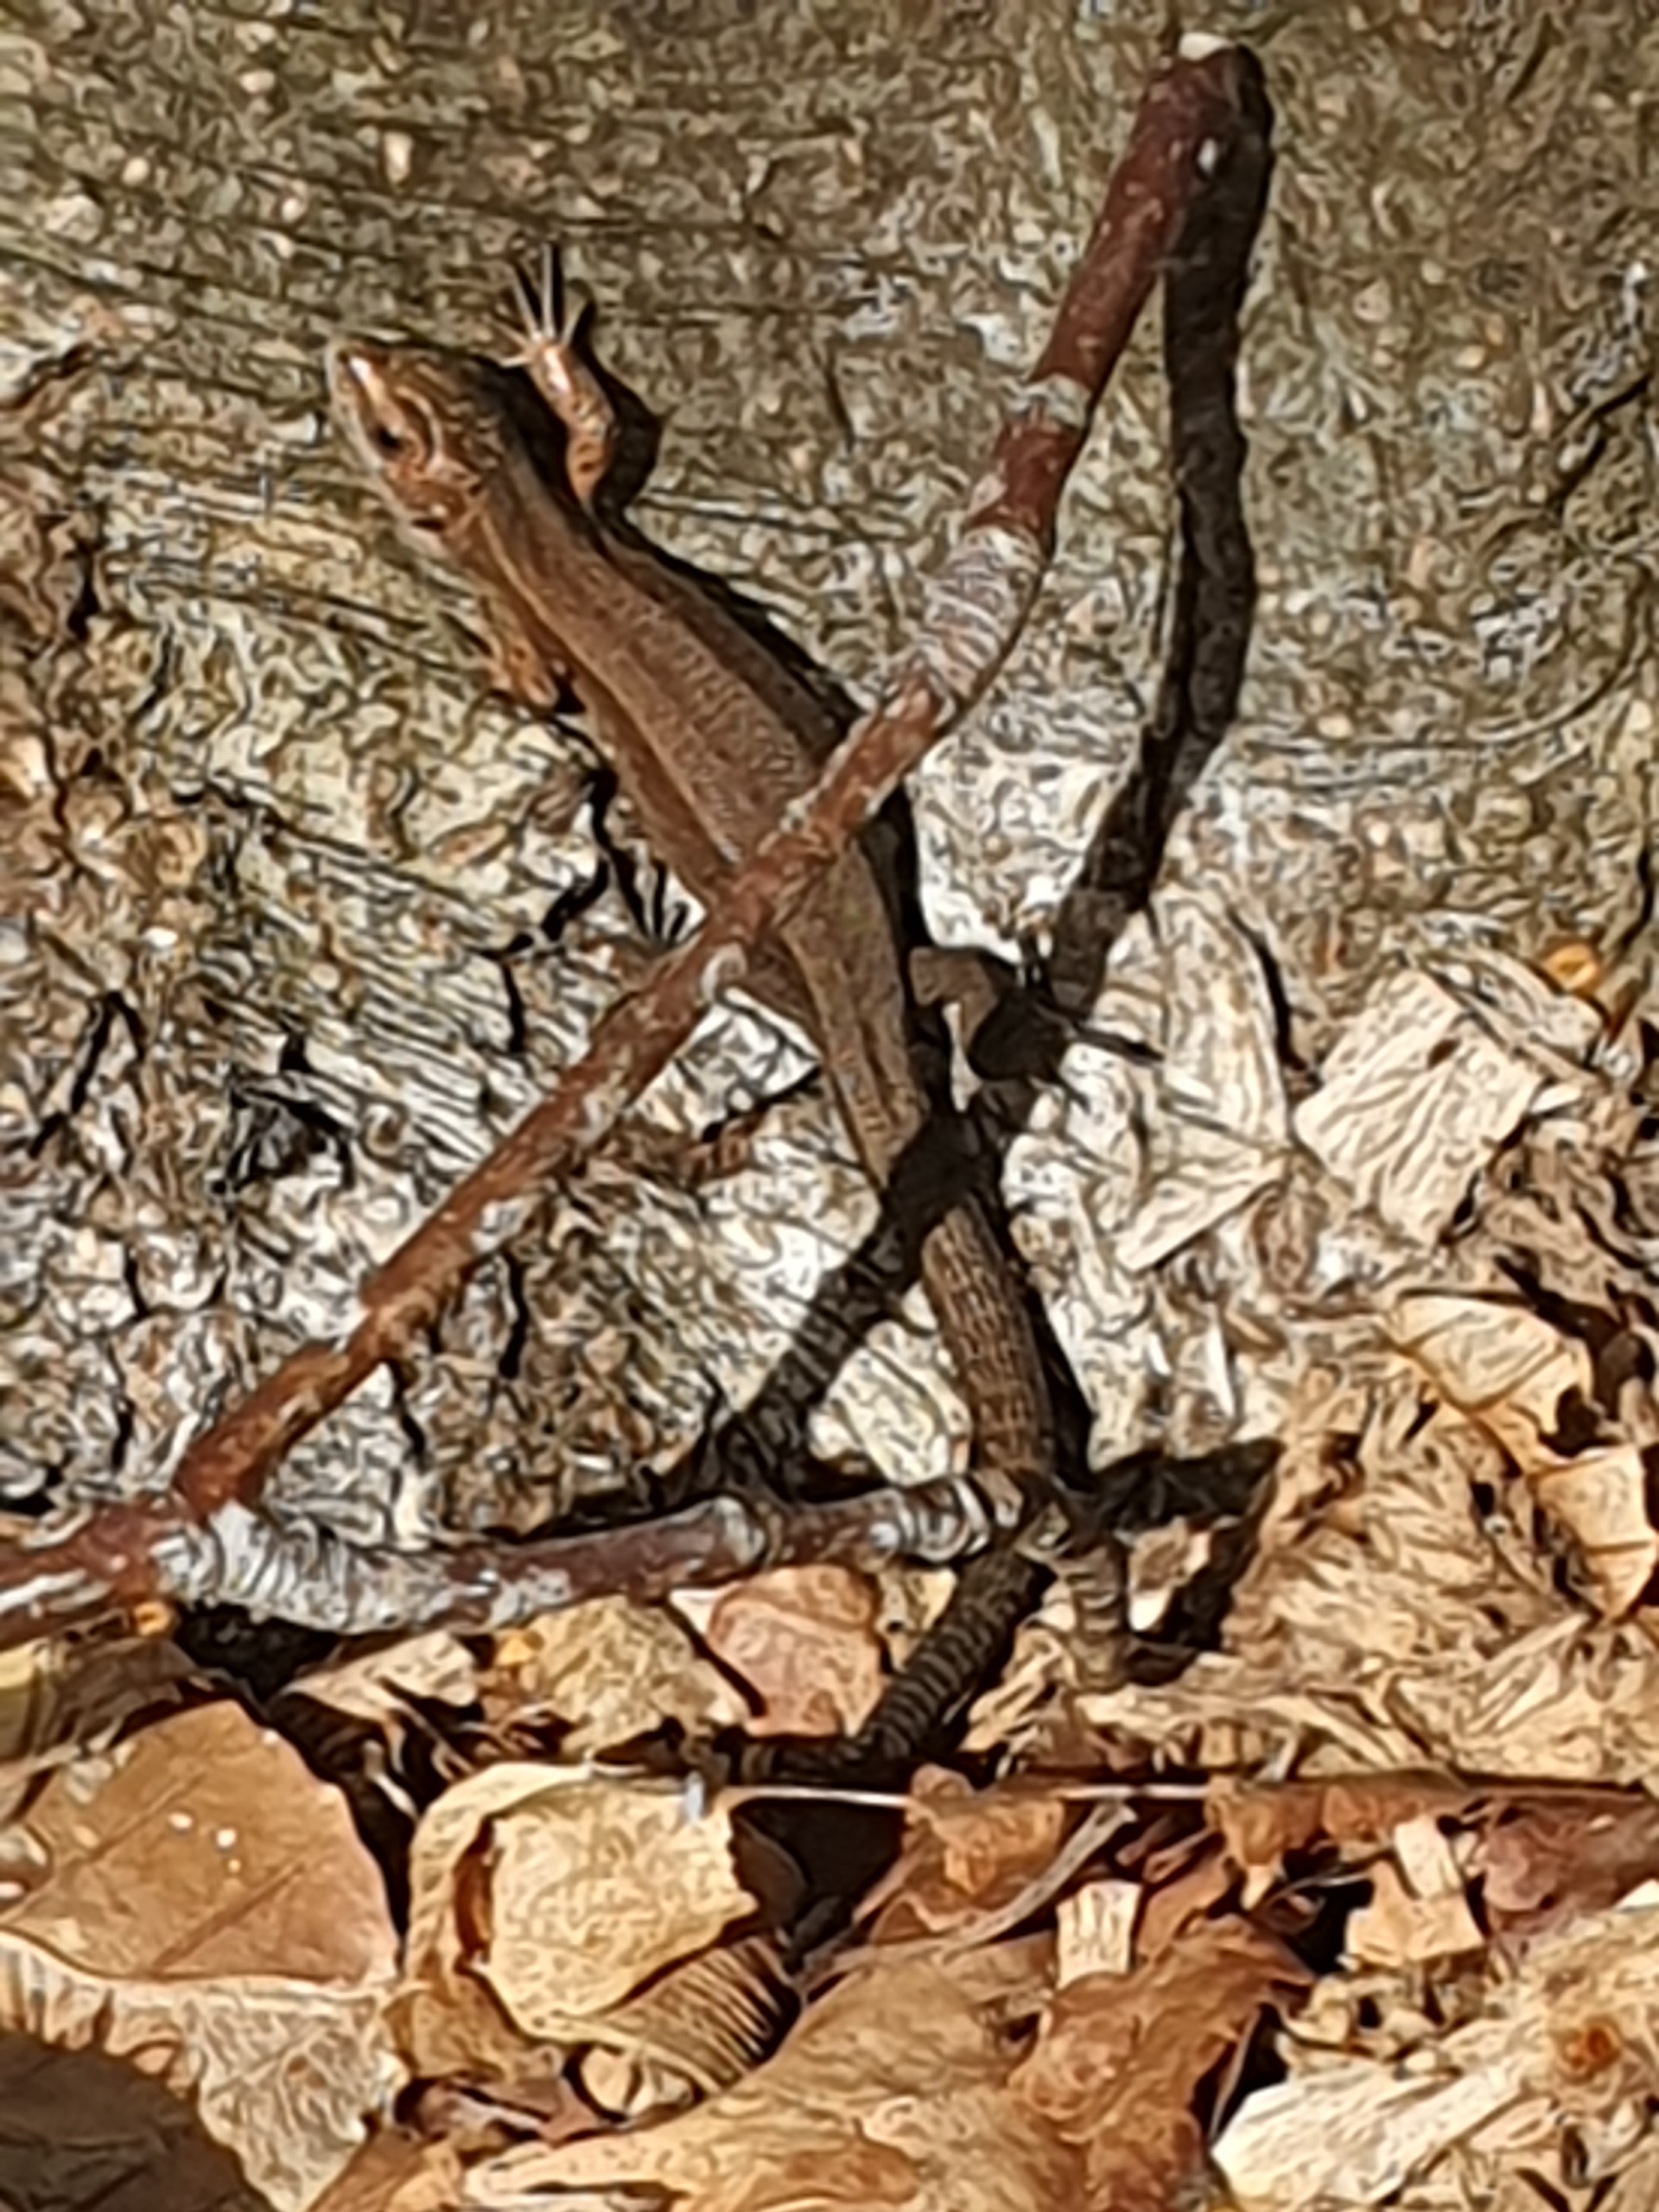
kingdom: Animalia
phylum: Chordata
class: Squamata
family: Lacertidae
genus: Zootoca
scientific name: Zootoca vivipara
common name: Skovfirben
